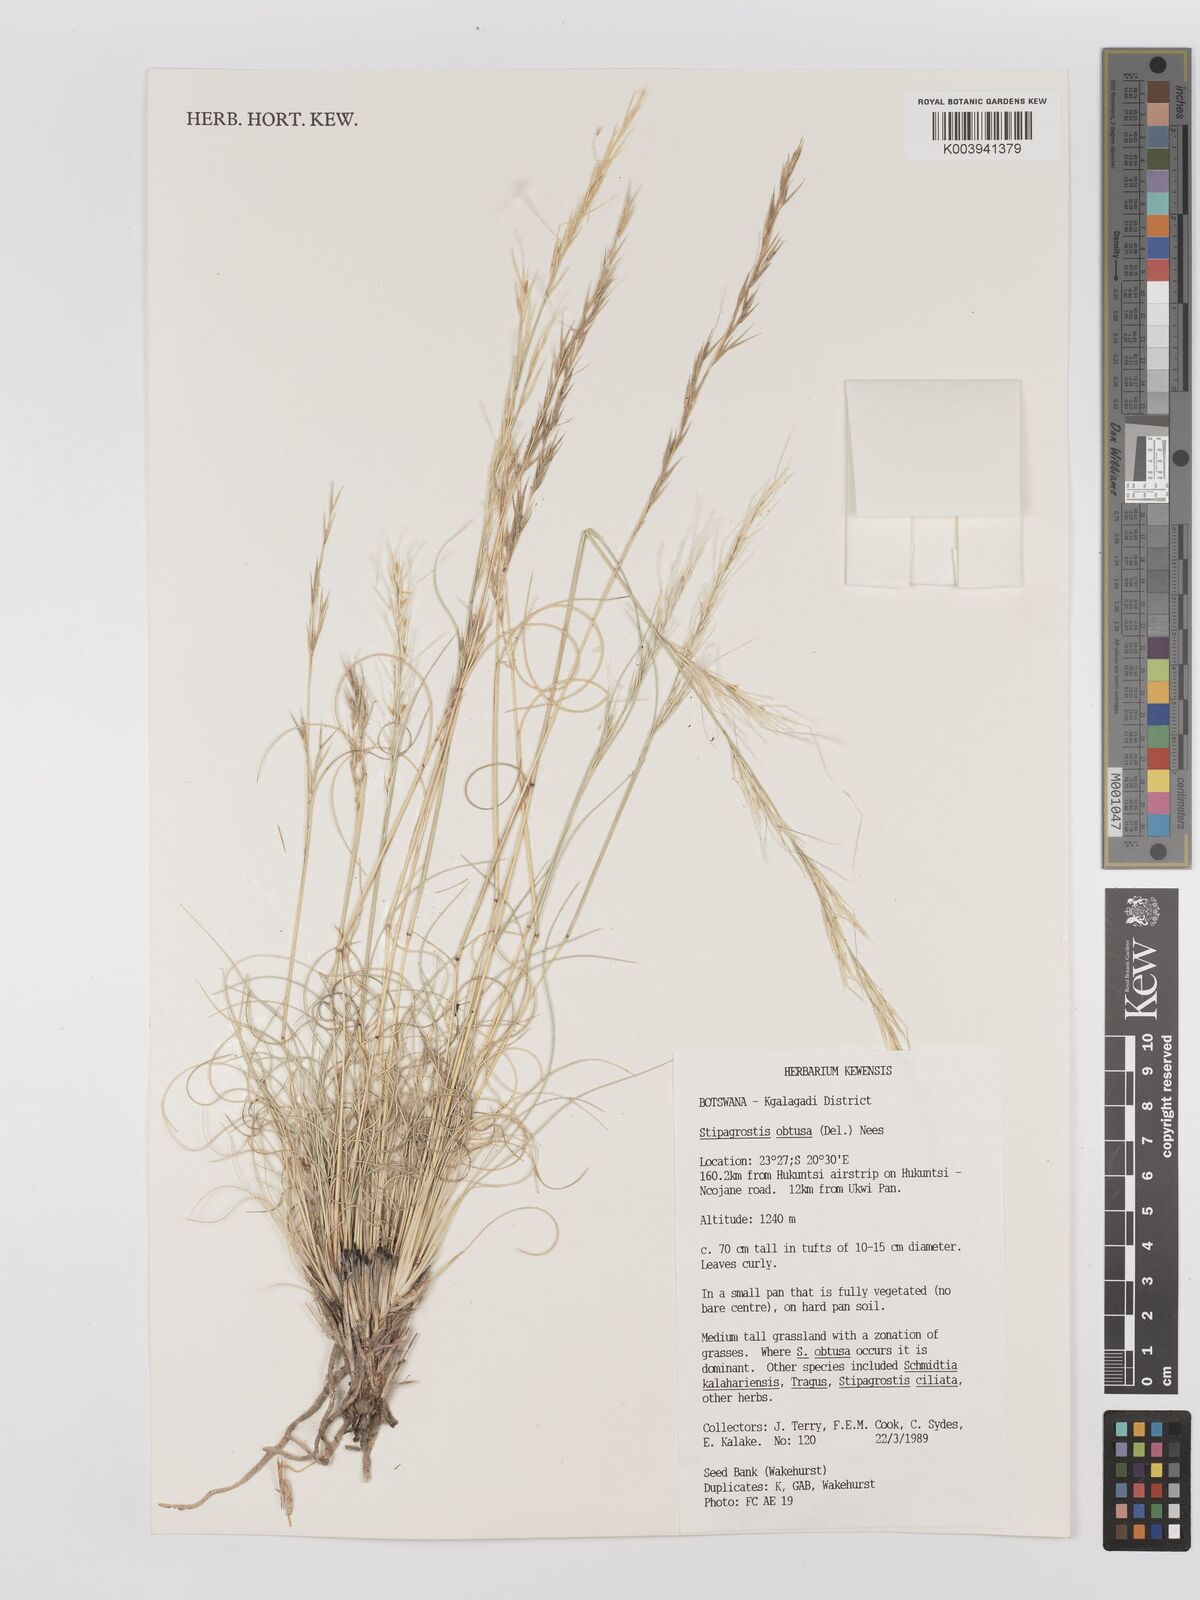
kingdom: Plantae
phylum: Tracheophyta
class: Liliopsida
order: Poales
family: Poaceae
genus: Stipagrostis
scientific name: Stipagrostis obtusa
